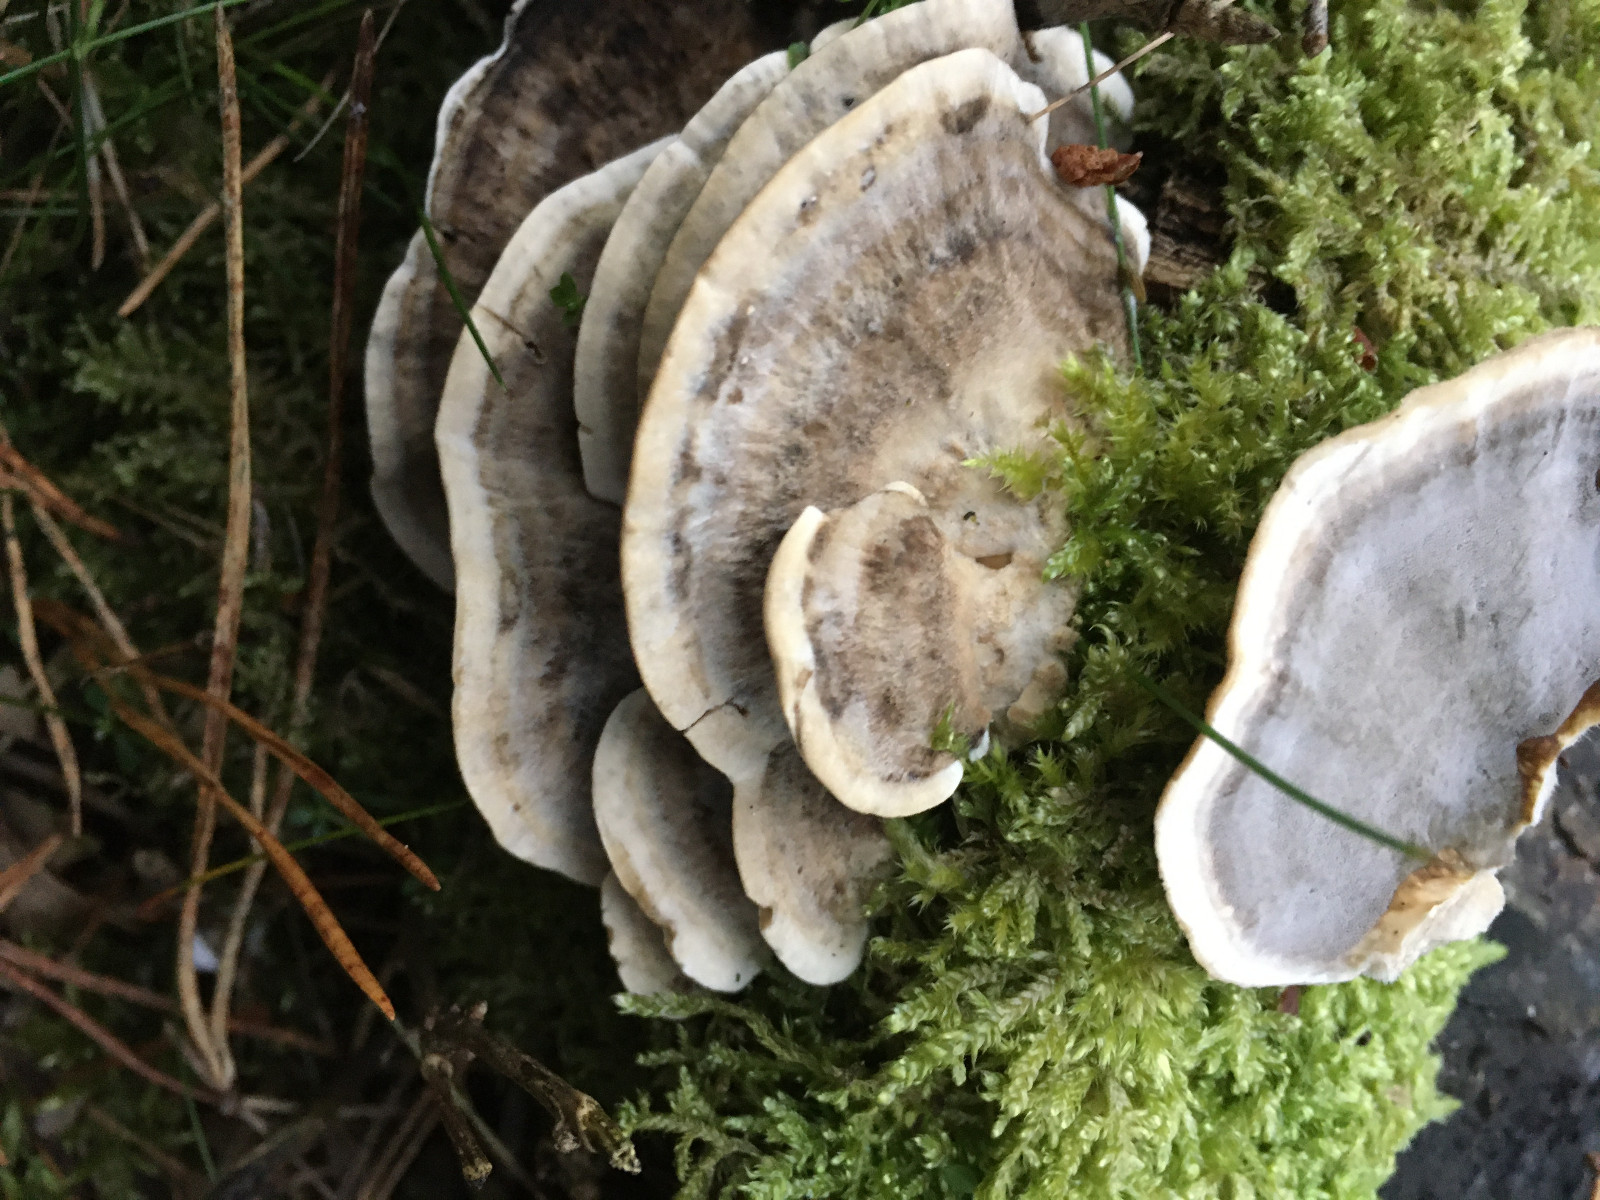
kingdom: Fungi
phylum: Basidiomycota
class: Agaricomycetes
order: Polyporales
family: Phanerochaetaceae
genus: Bjerkandera
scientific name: Bjerkandera adusta
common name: sveden sodporesvamp
